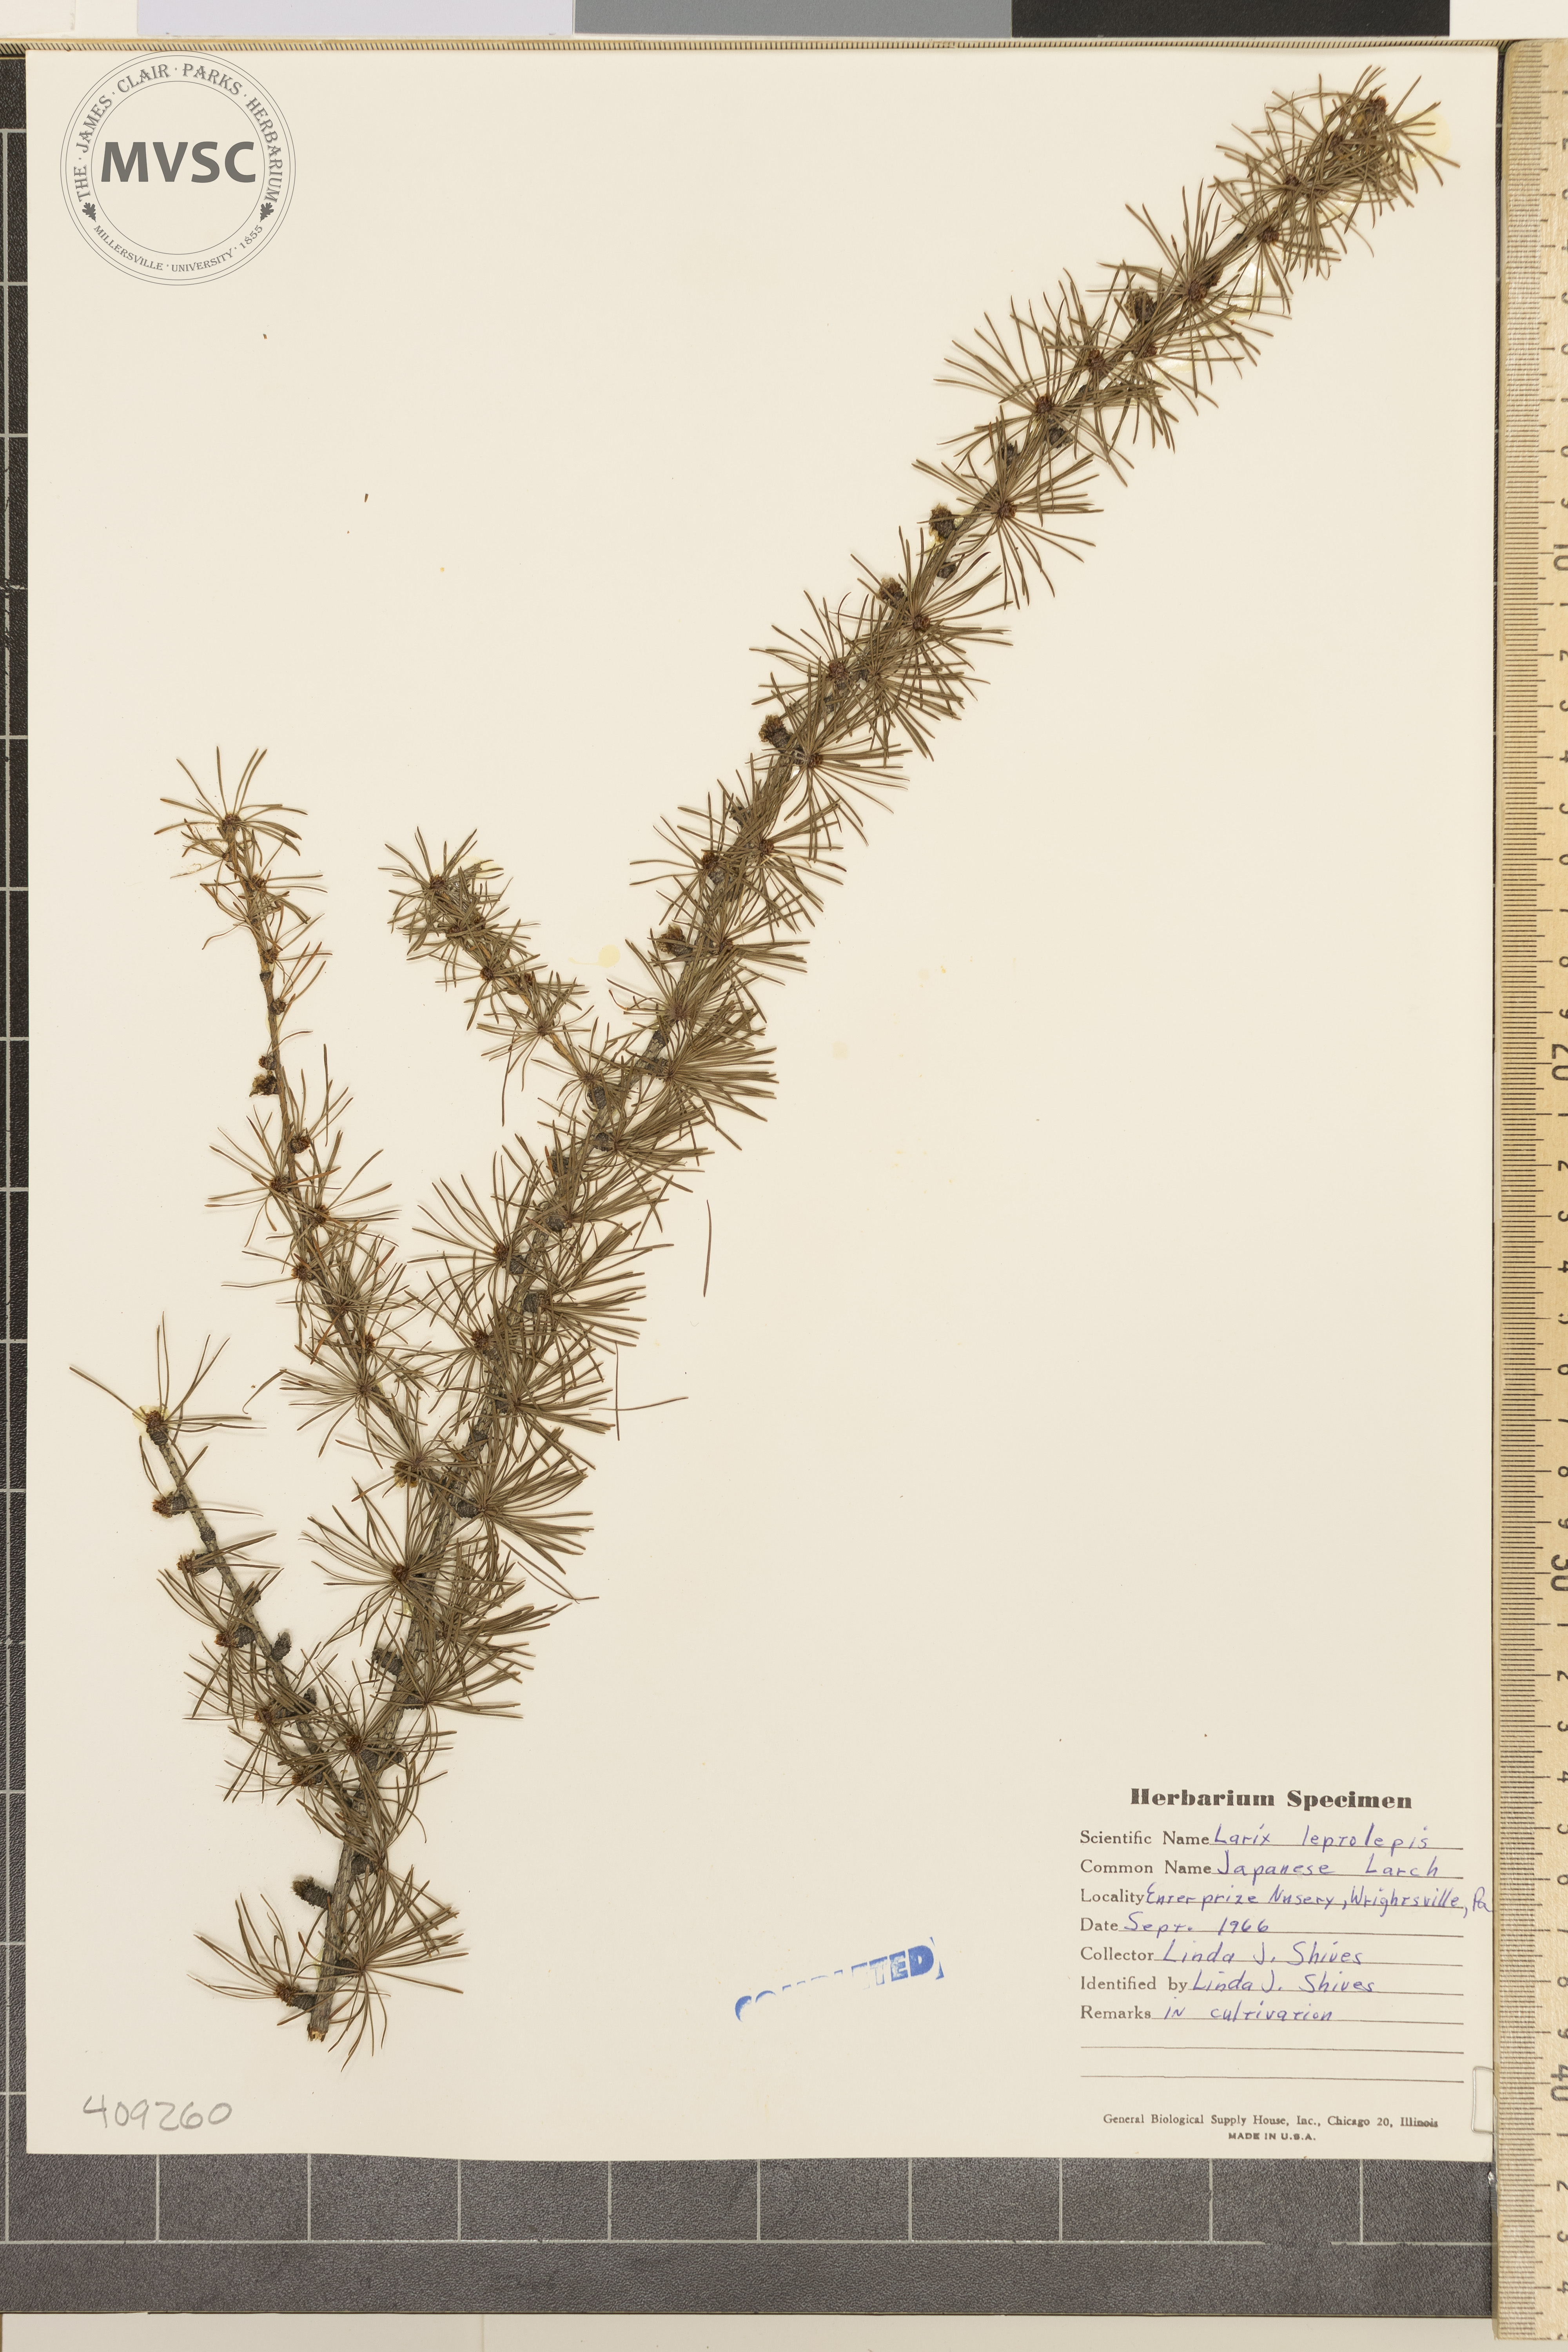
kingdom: Plantae
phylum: Tracheophyta
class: Pinopsida
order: Pinales
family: Pinaceae
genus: Larix
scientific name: Larix kaempferi
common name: Japanese larch
